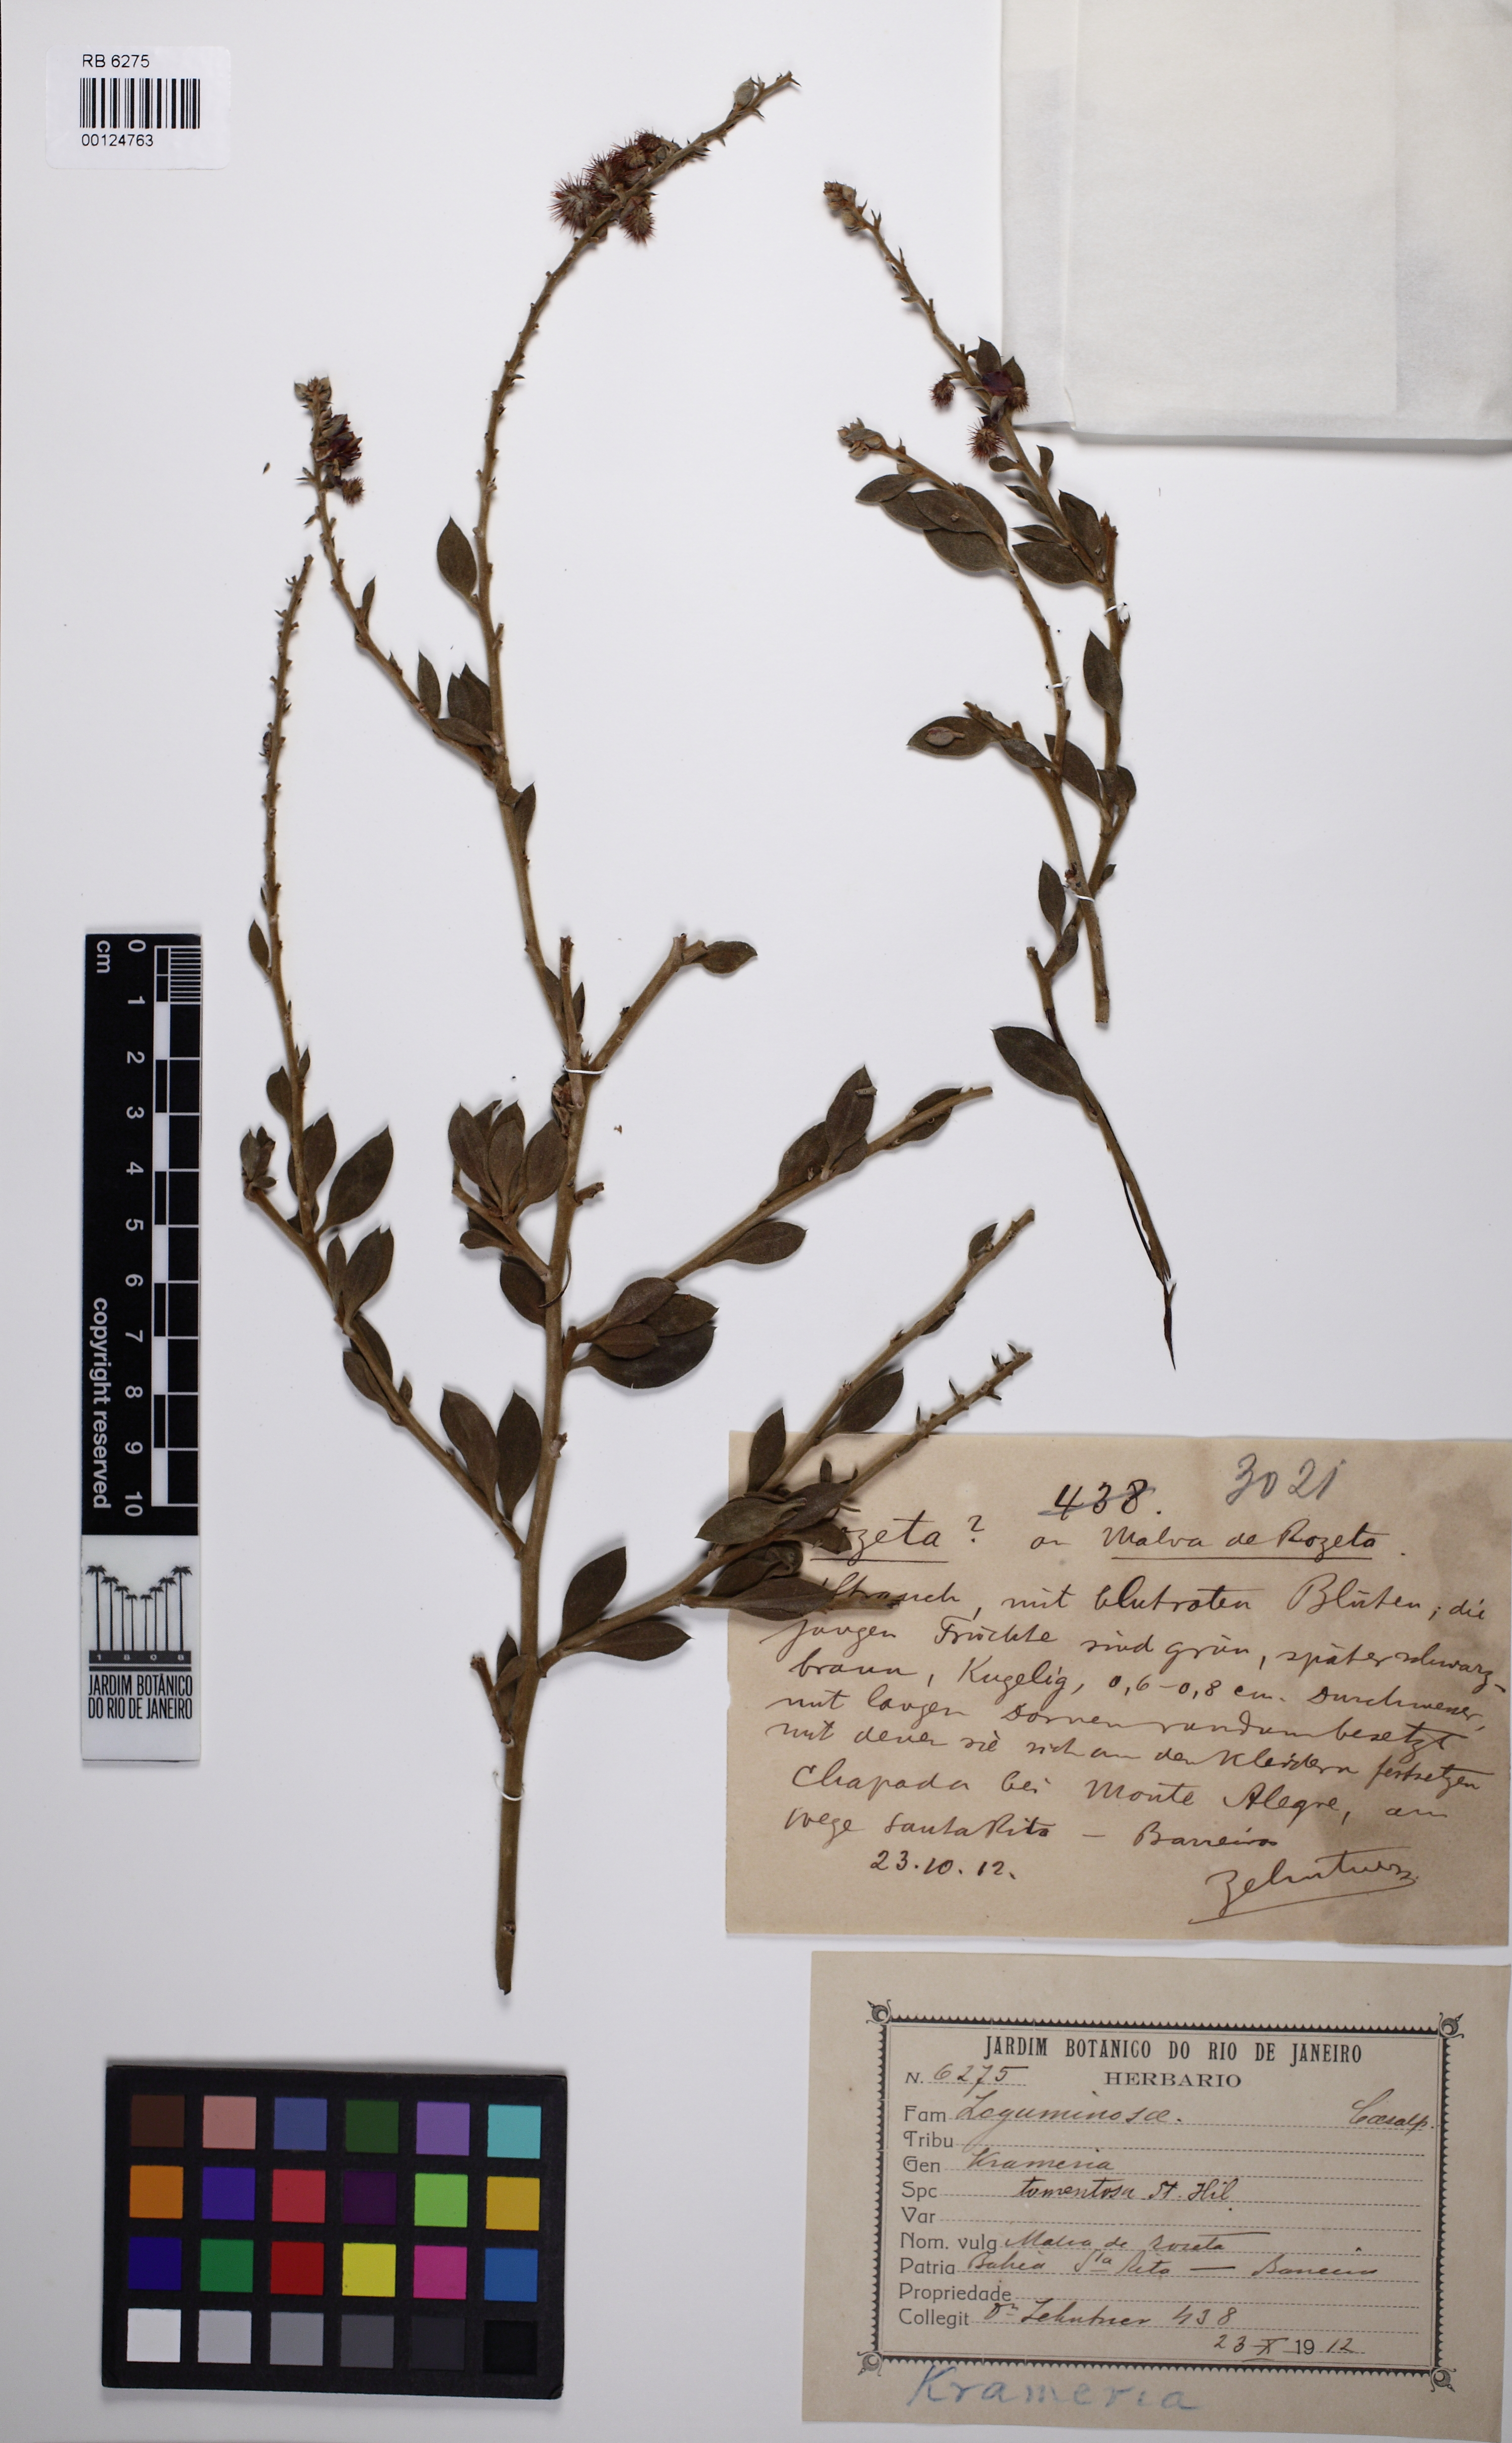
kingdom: Plantae
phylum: Tracheophyta
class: Magnoliopsida
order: Zygophyllales
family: Krameriaceae
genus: Krameria
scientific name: Krameria tomentosa
